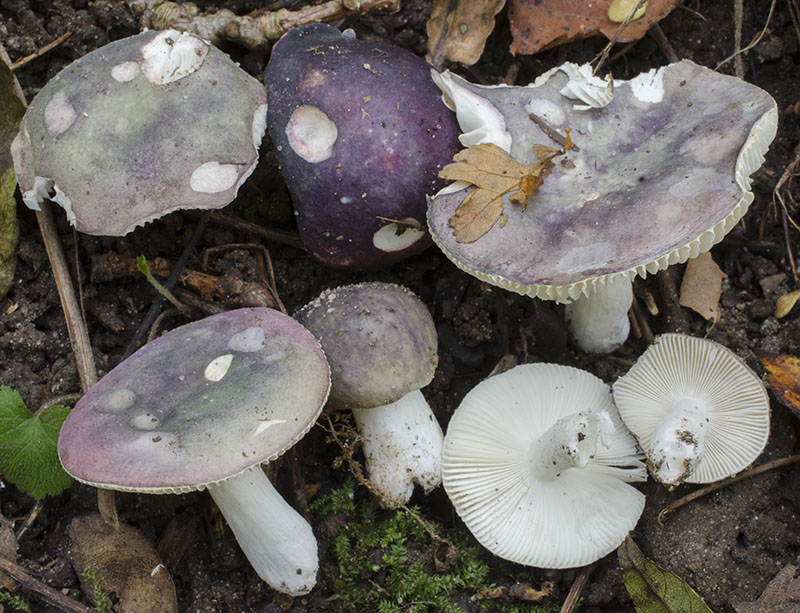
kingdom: Fungi
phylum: Basidiomycota
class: Agaricomycetes
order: Russulales
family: Russulaceae
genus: Russula
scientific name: Russula pelargonia
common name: pelargonie-skørhat
